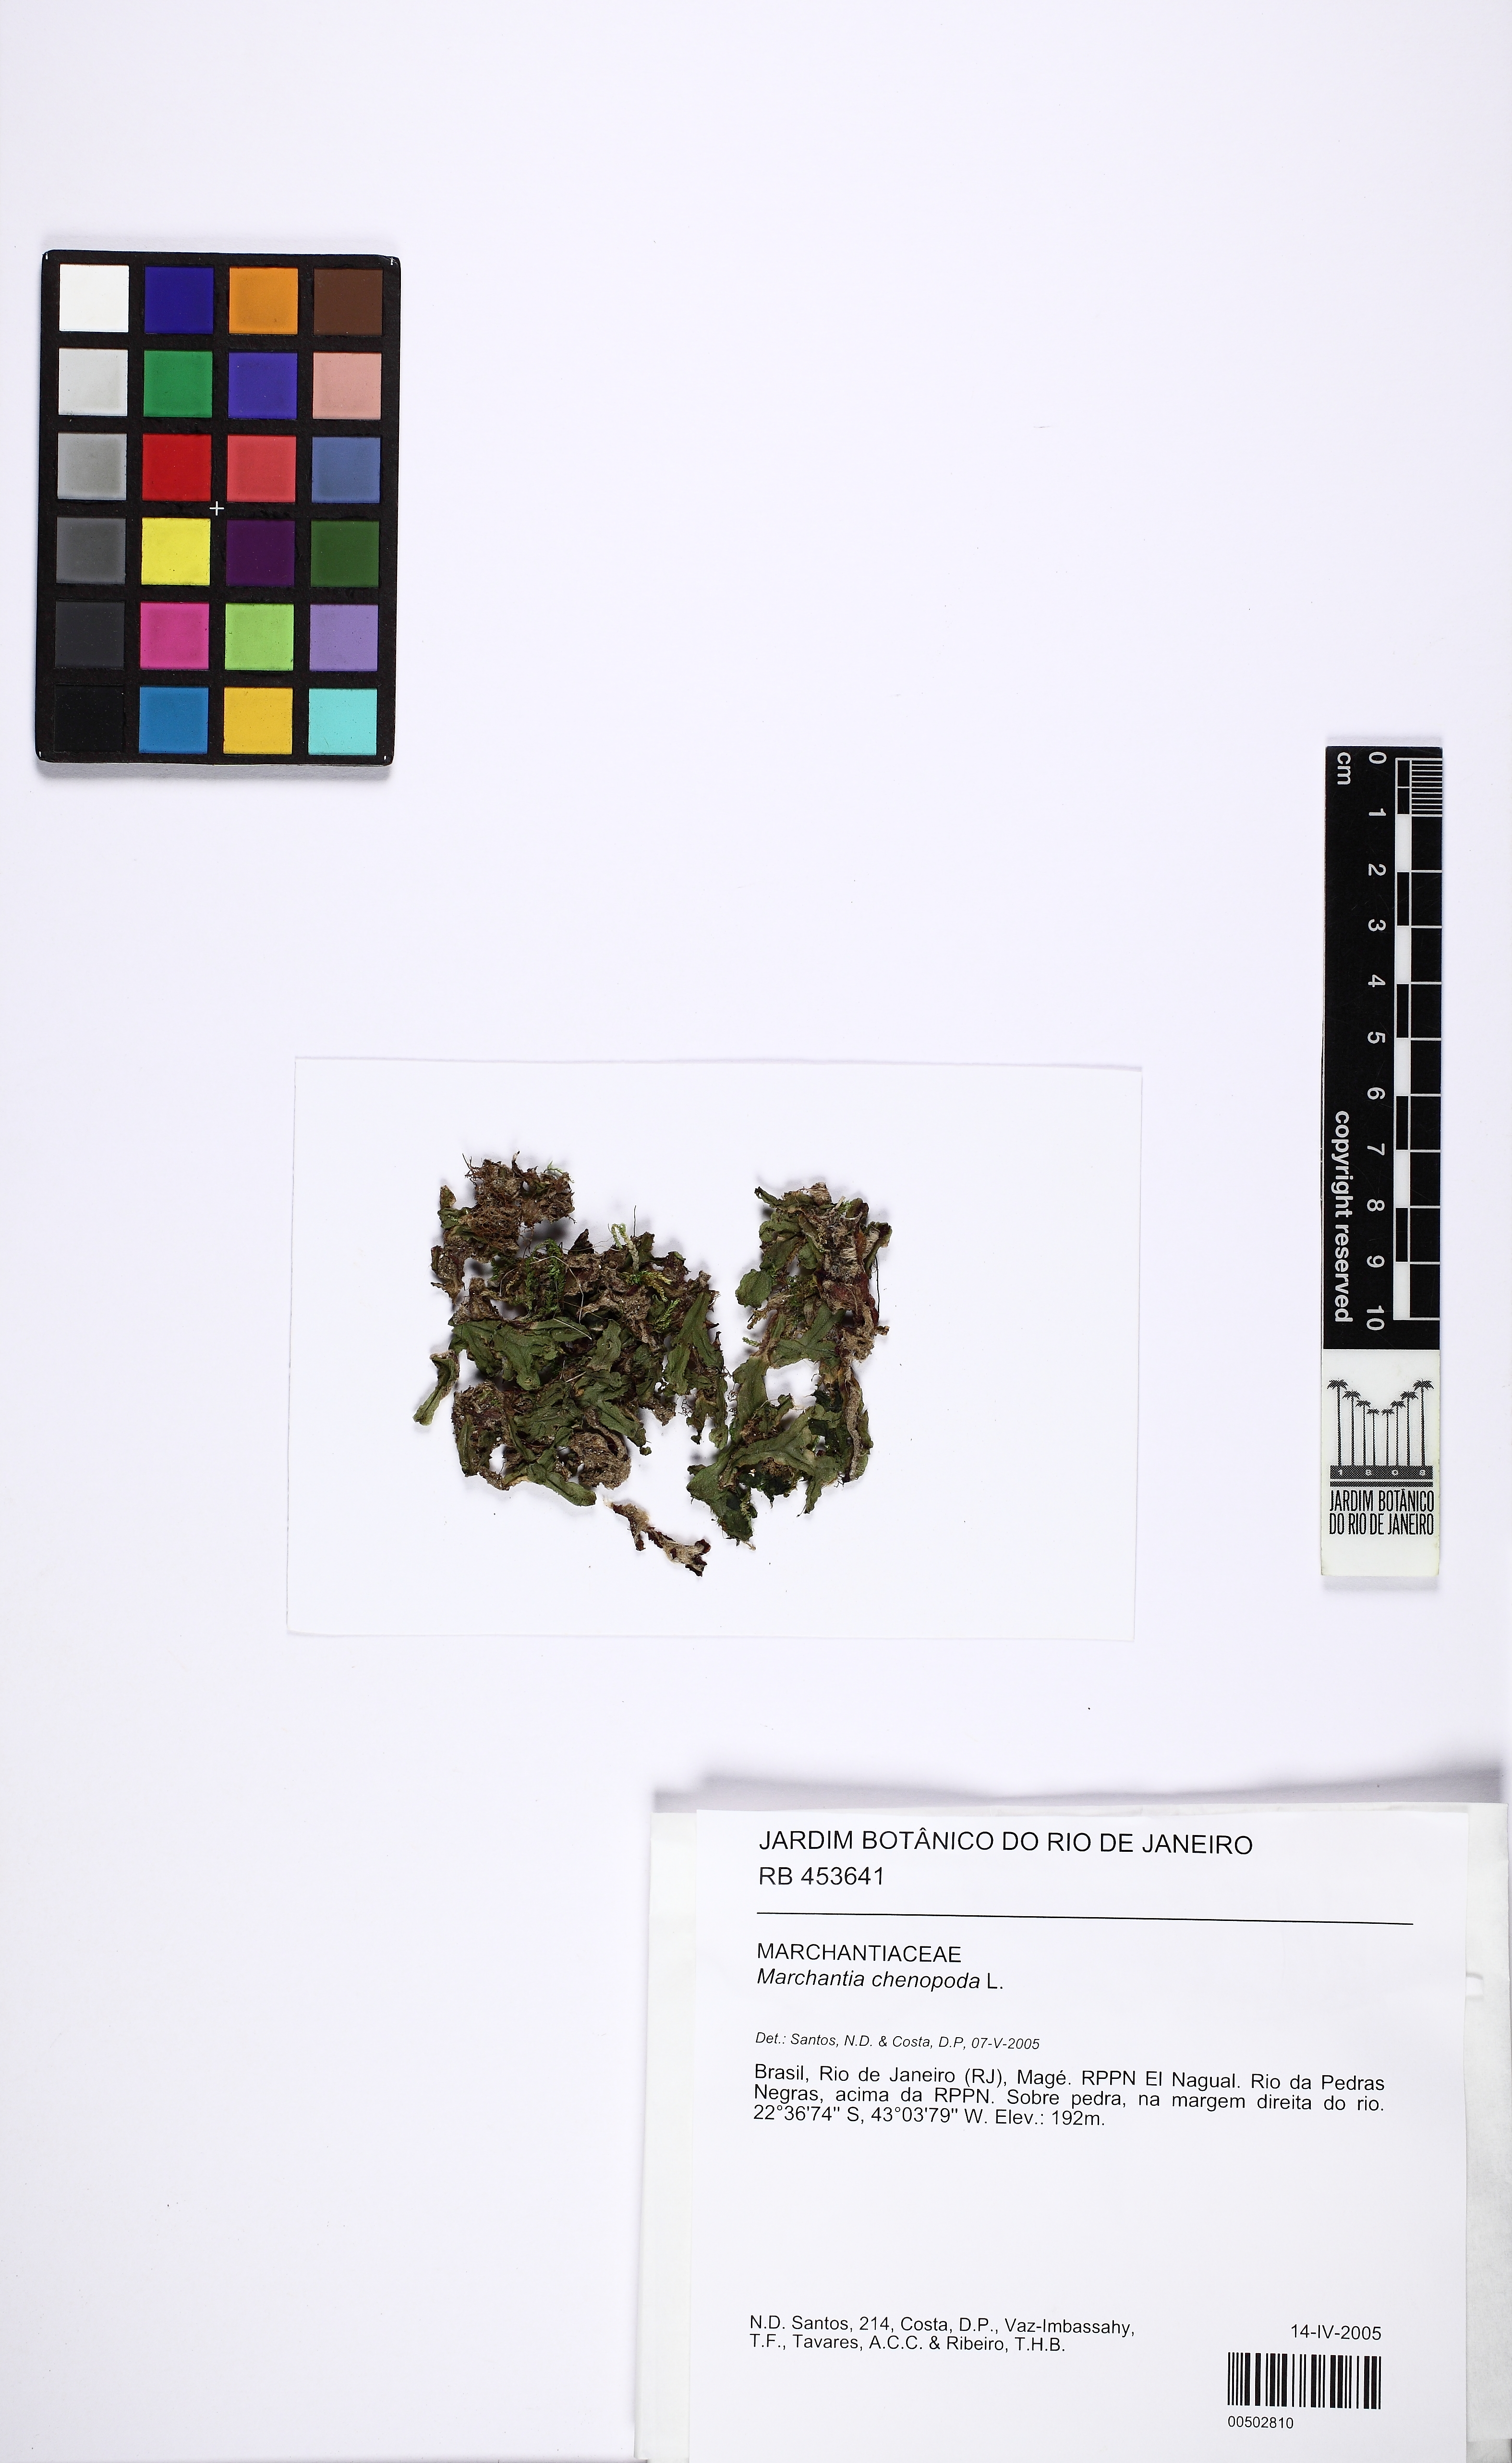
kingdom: Plantae
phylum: Marchantiophyta
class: Marchantiopsida
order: Marchantiales
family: Marchantiaceae
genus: Marchantia
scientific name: Marchantia chenopoda
